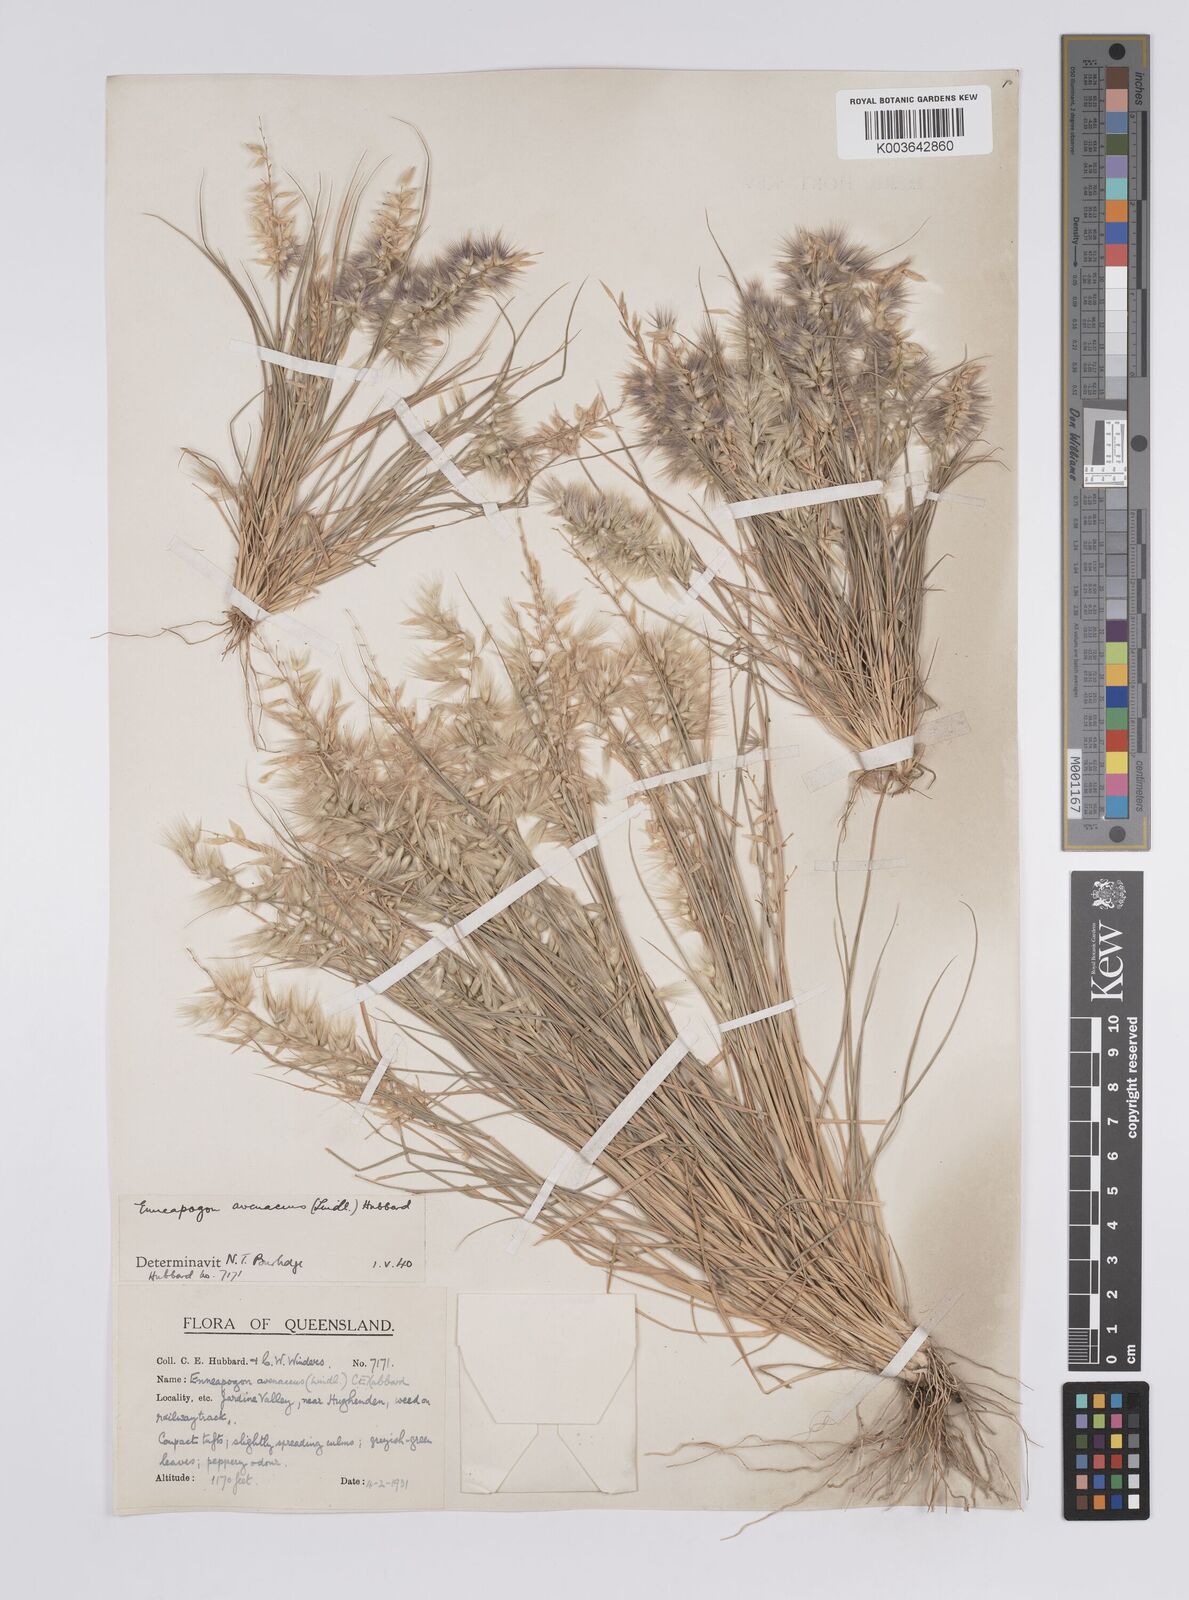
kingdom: Plantae
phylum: Tracheophyta
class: Liliopsida
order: Poales
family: Poaceae
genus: Enneapogon
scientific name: Enneapogon avenaceus
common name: Hairy oat grass
